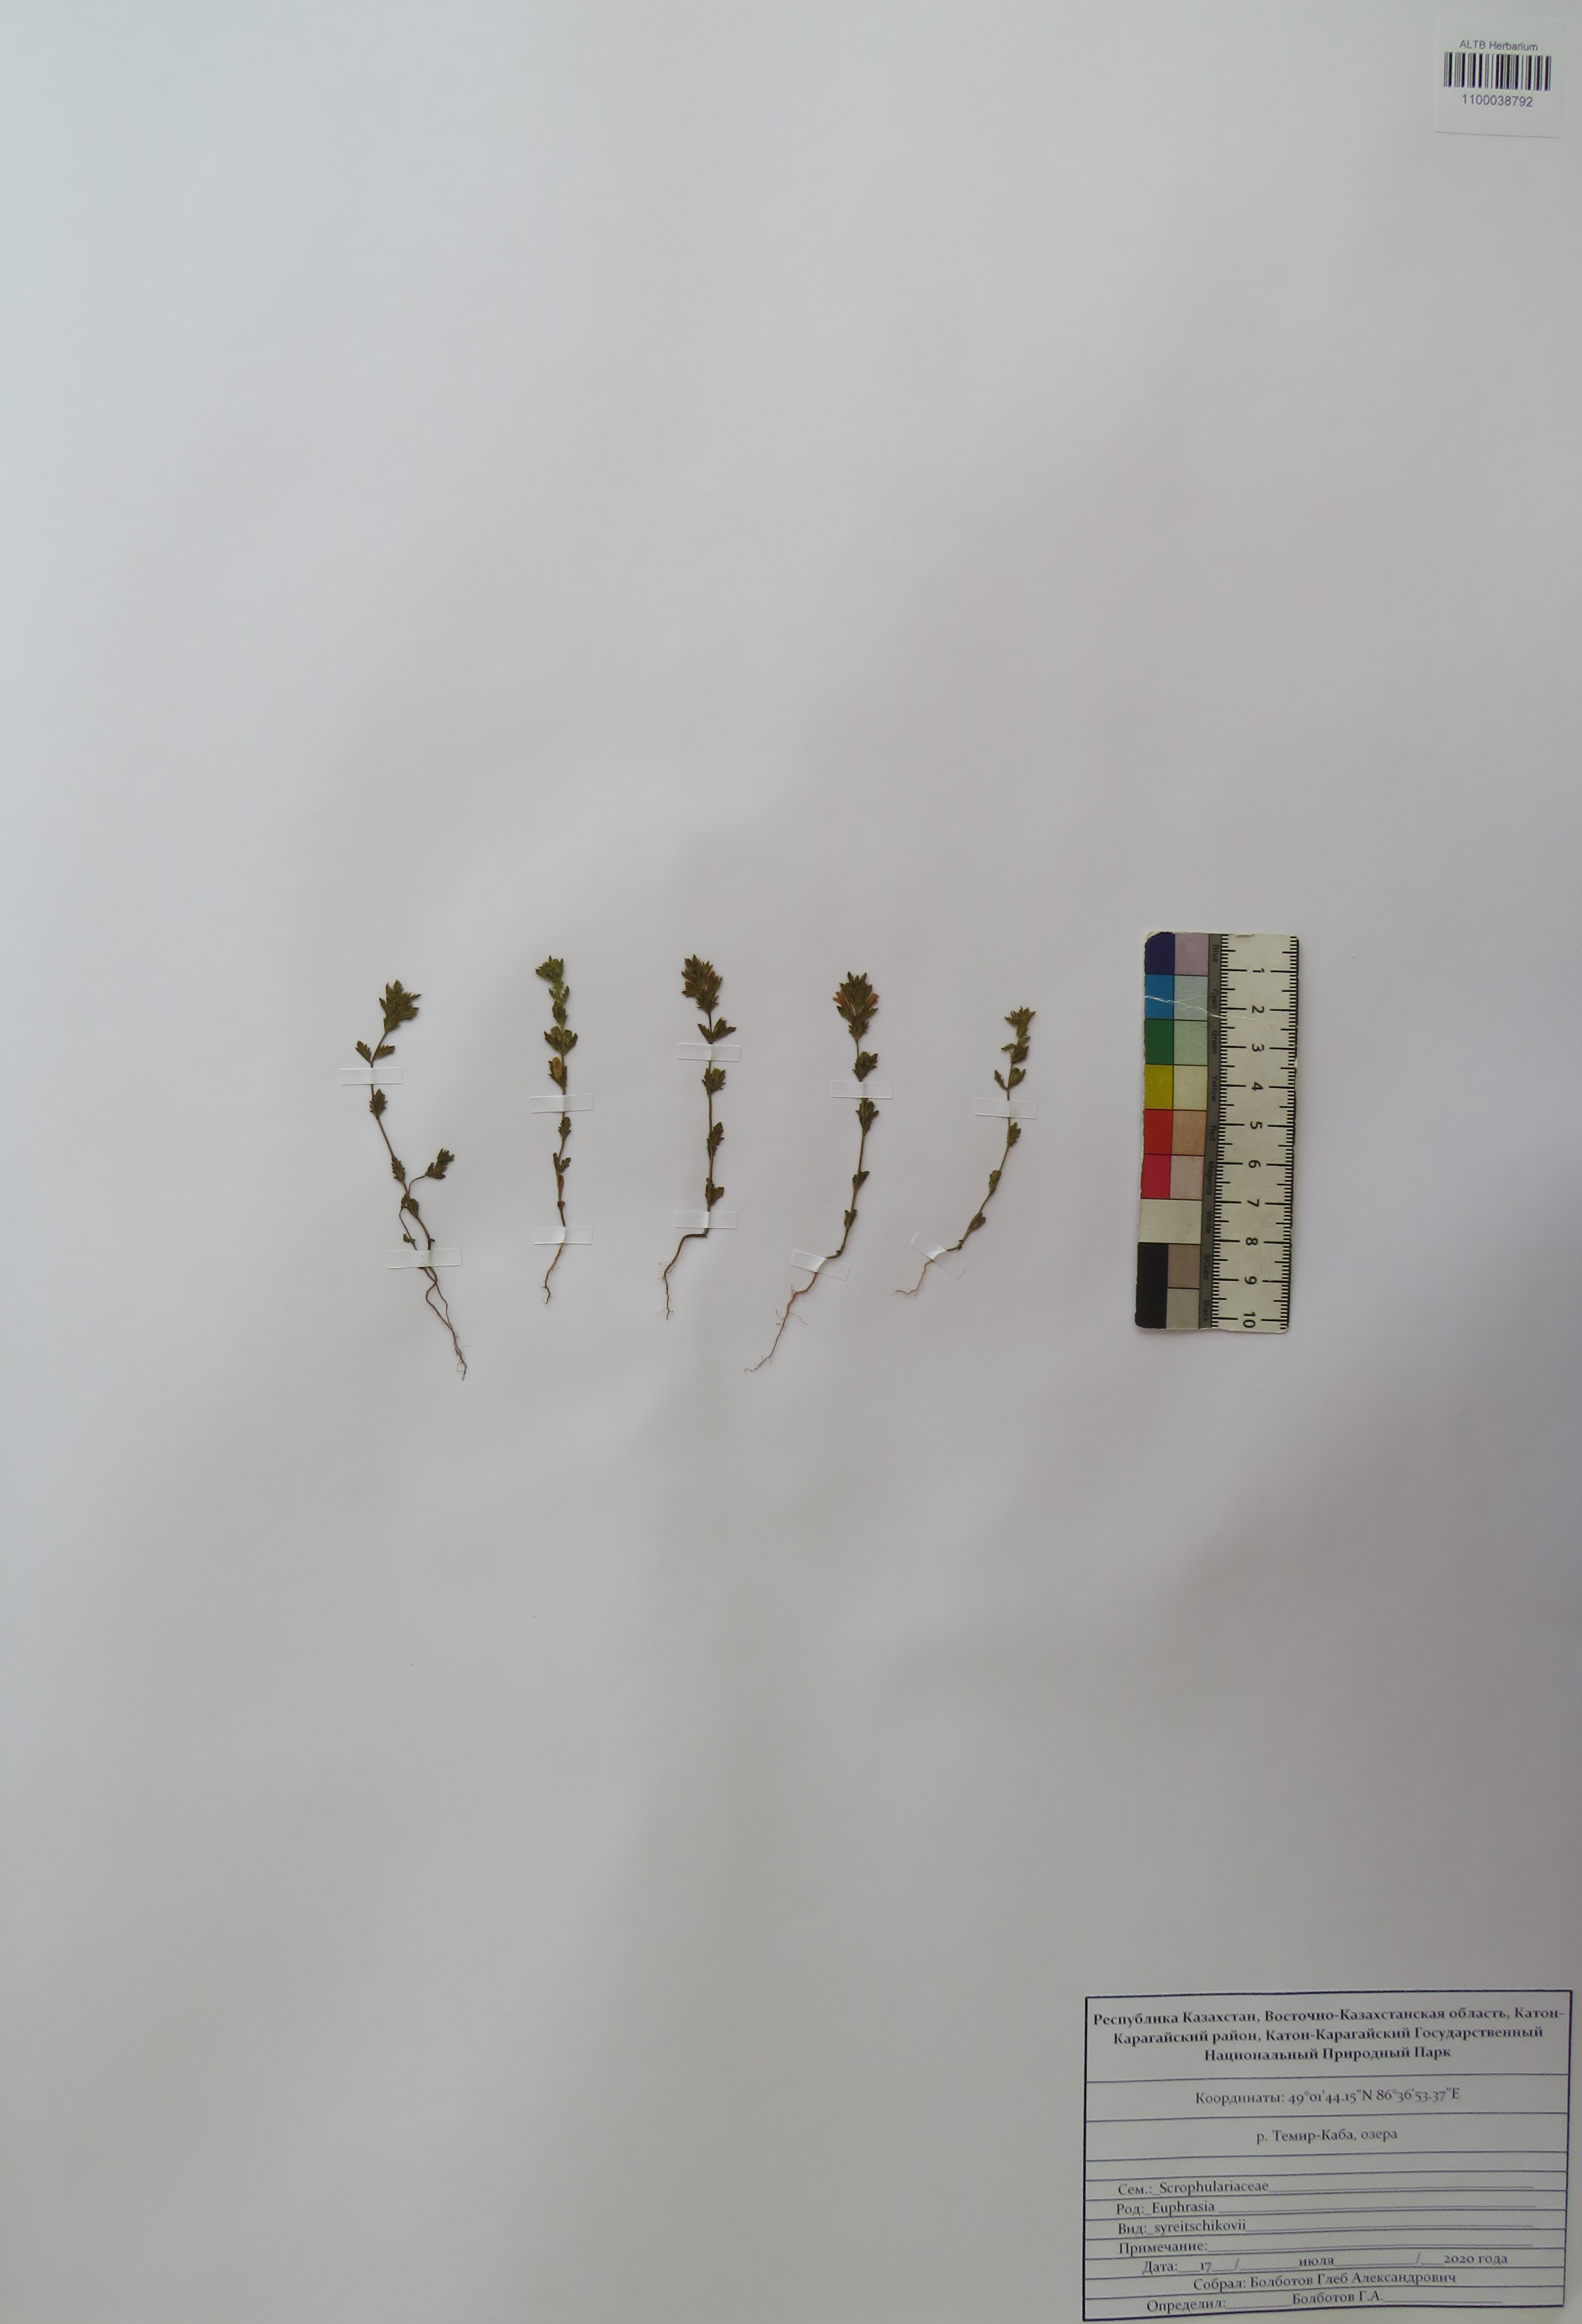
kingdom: Plantae
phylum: Tracheophyta
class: Magnoliopsida
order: Lamiales
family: Orobanchaceae
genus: Euphrasia
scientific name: Euphrasia syreitschikovii
